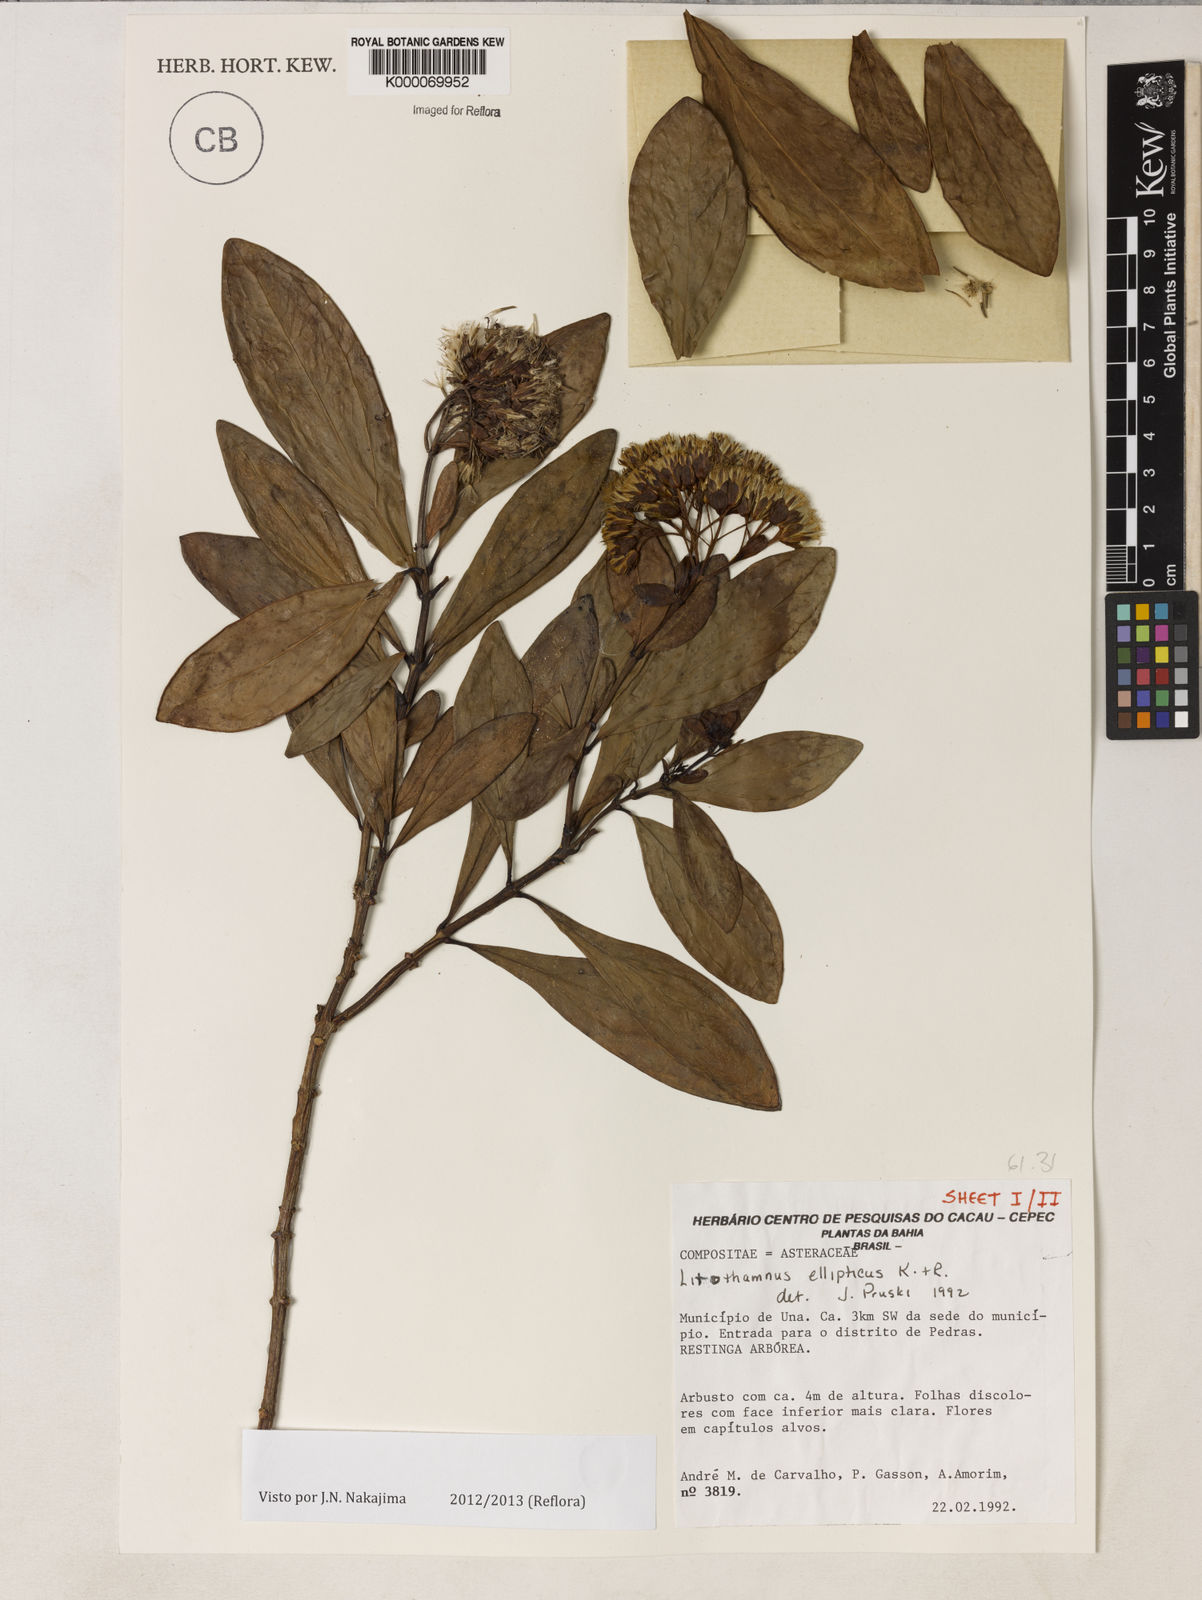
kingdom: Plantae
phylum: Tracheophyta
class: Magnoliopsida
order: Asterales
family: Asteraceae
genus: Litothamnus
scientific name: Litothamnus ellipticus
